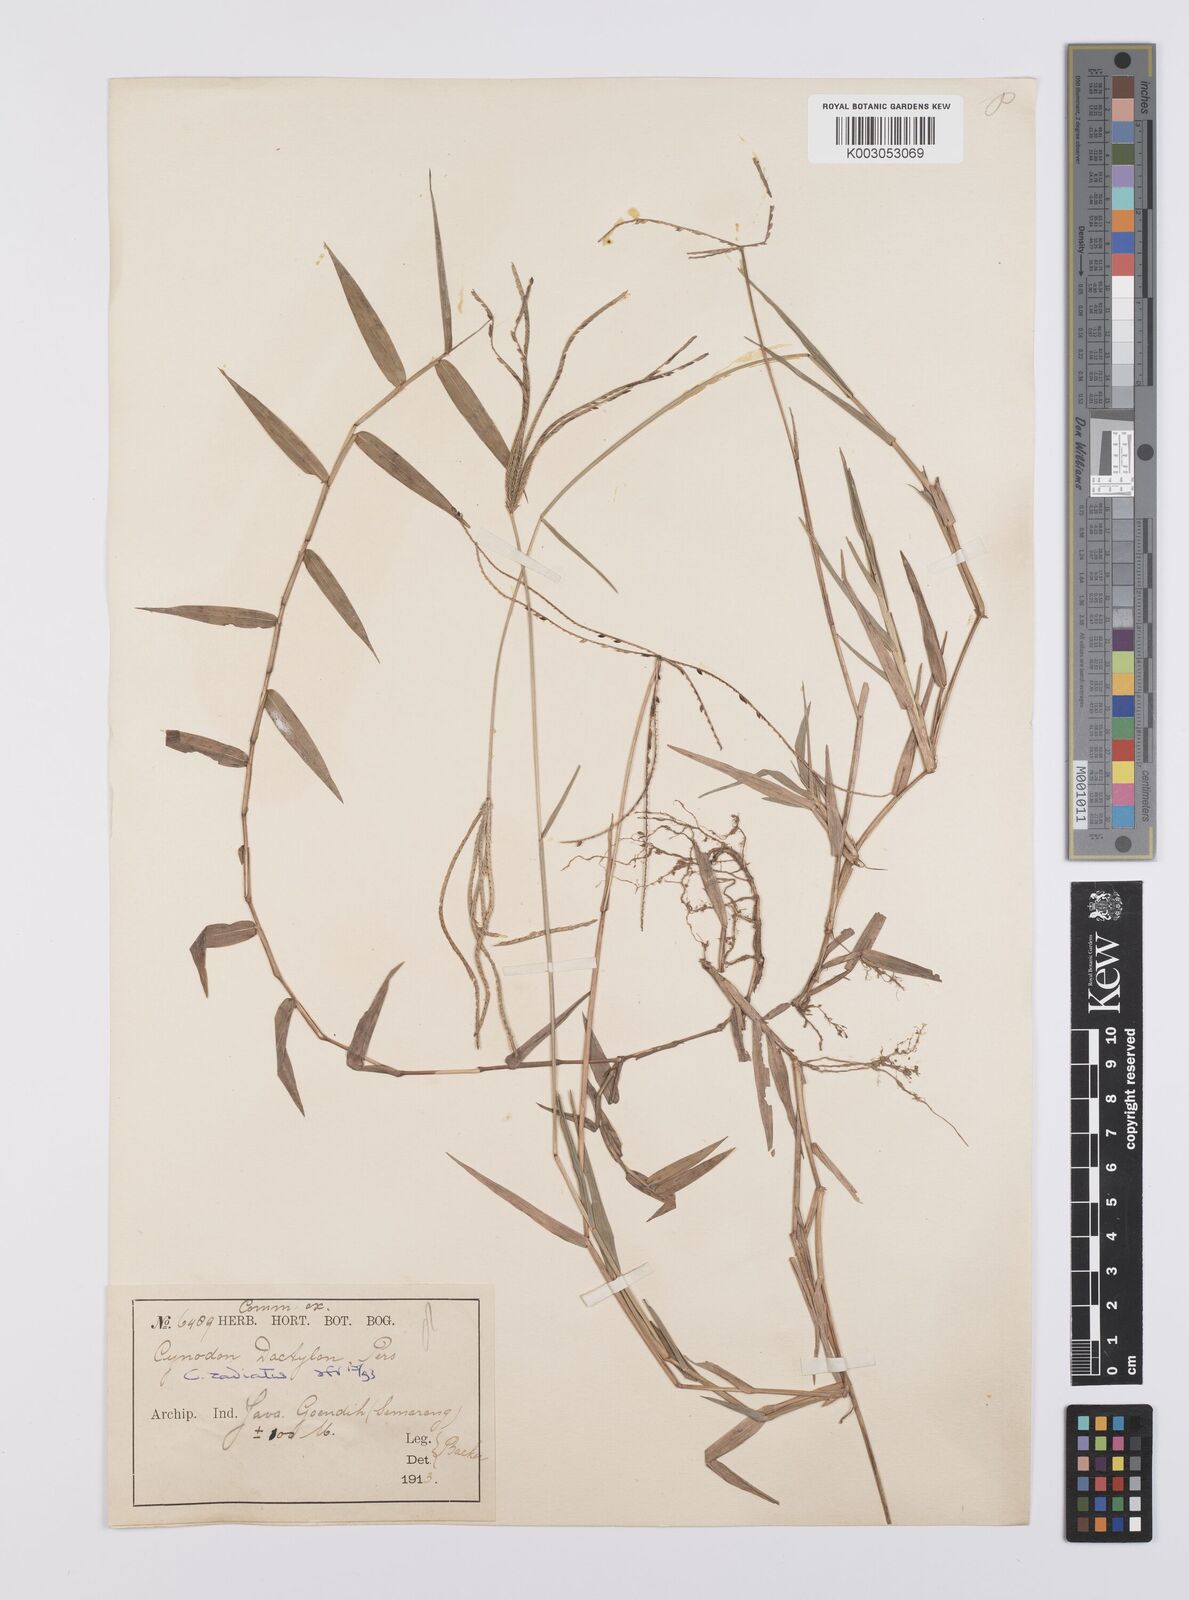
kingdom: Plantae
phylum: Tracheophyta
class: Liliopsida
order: Poales
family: Poaceae
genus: Cynodon
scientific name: Cynodon radiatus
